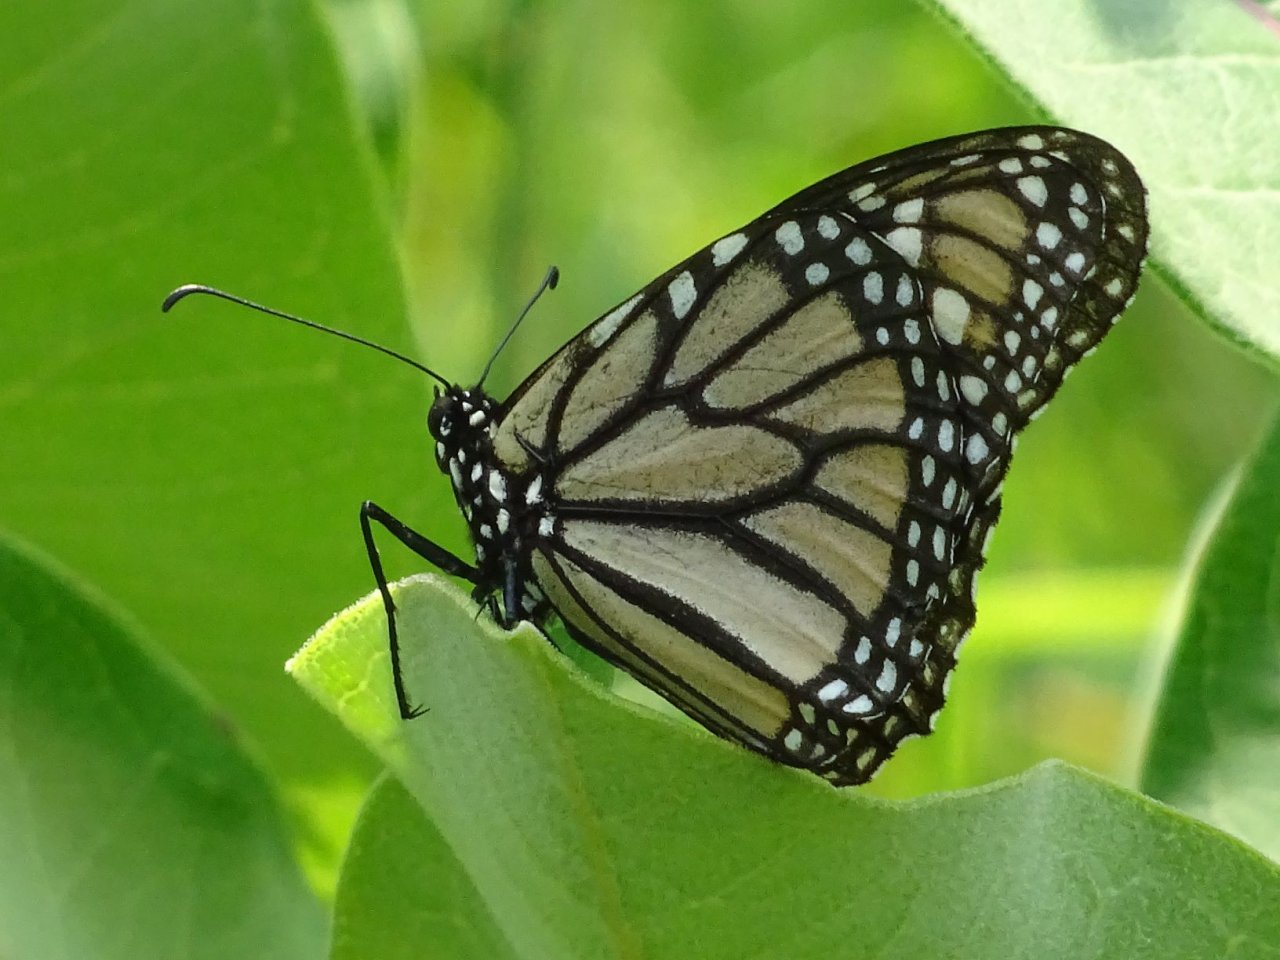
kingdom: Animalia
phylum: Arthropoda
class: Insecta
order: Lepidoptera
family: Nymphalidae
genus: Danaus
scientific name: Danaus plexippus
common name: Monarch
